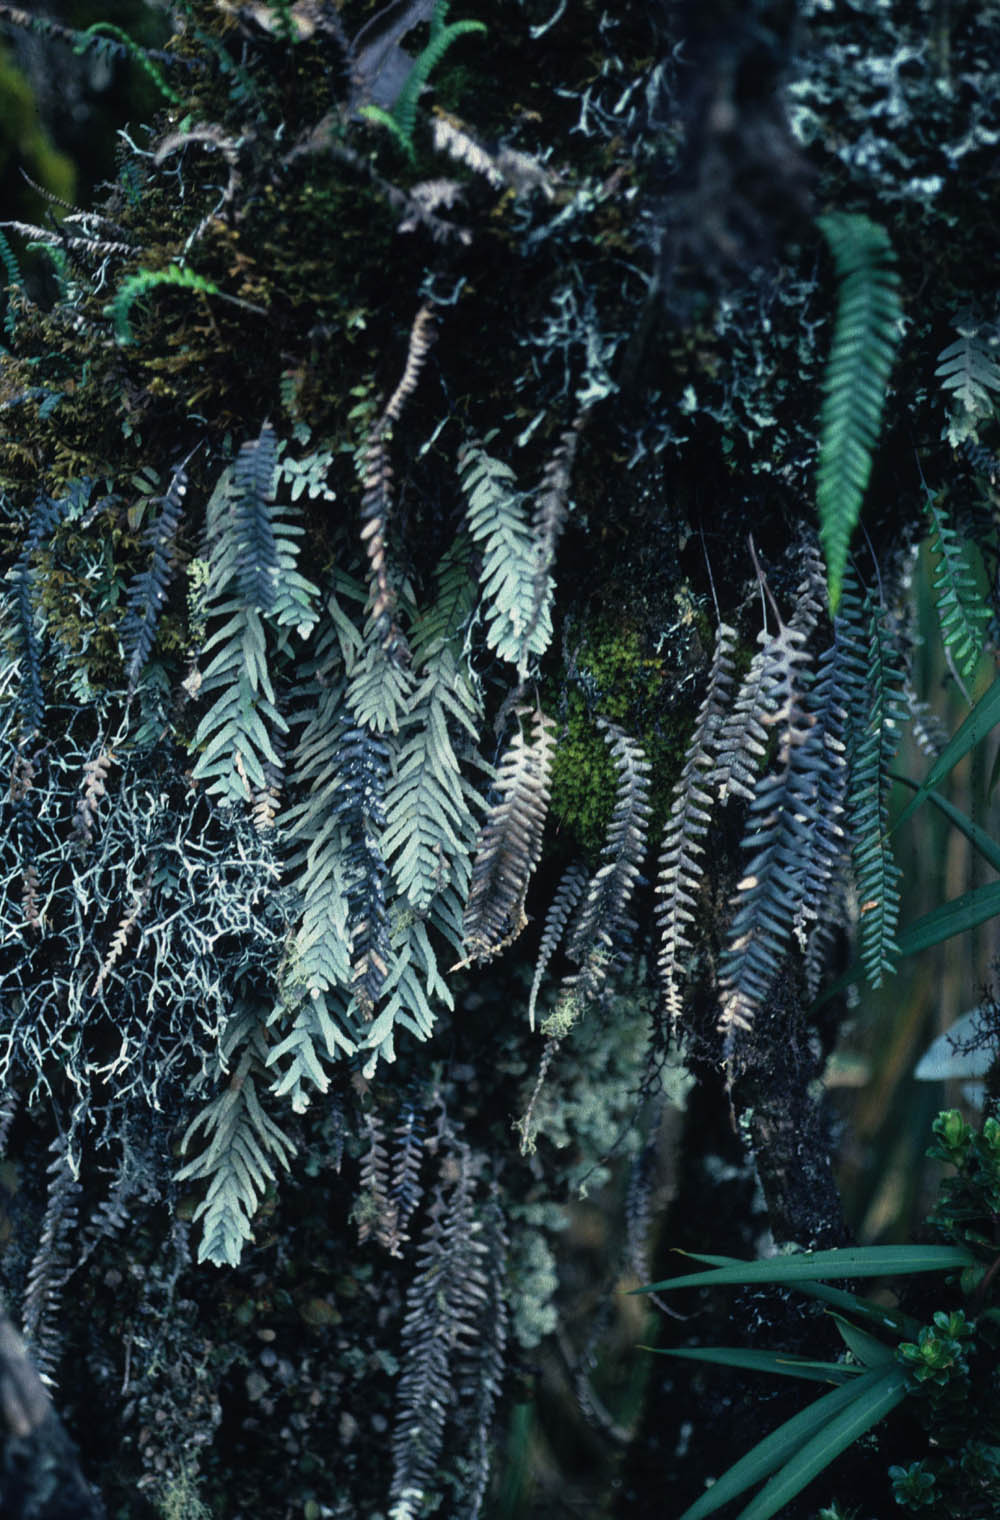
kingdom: Plantae
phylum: Tracheophyta
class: Magnoliopsida
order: Myrtales
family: Melastomataceae
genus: Miconia
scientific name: Miconia centrodesma
